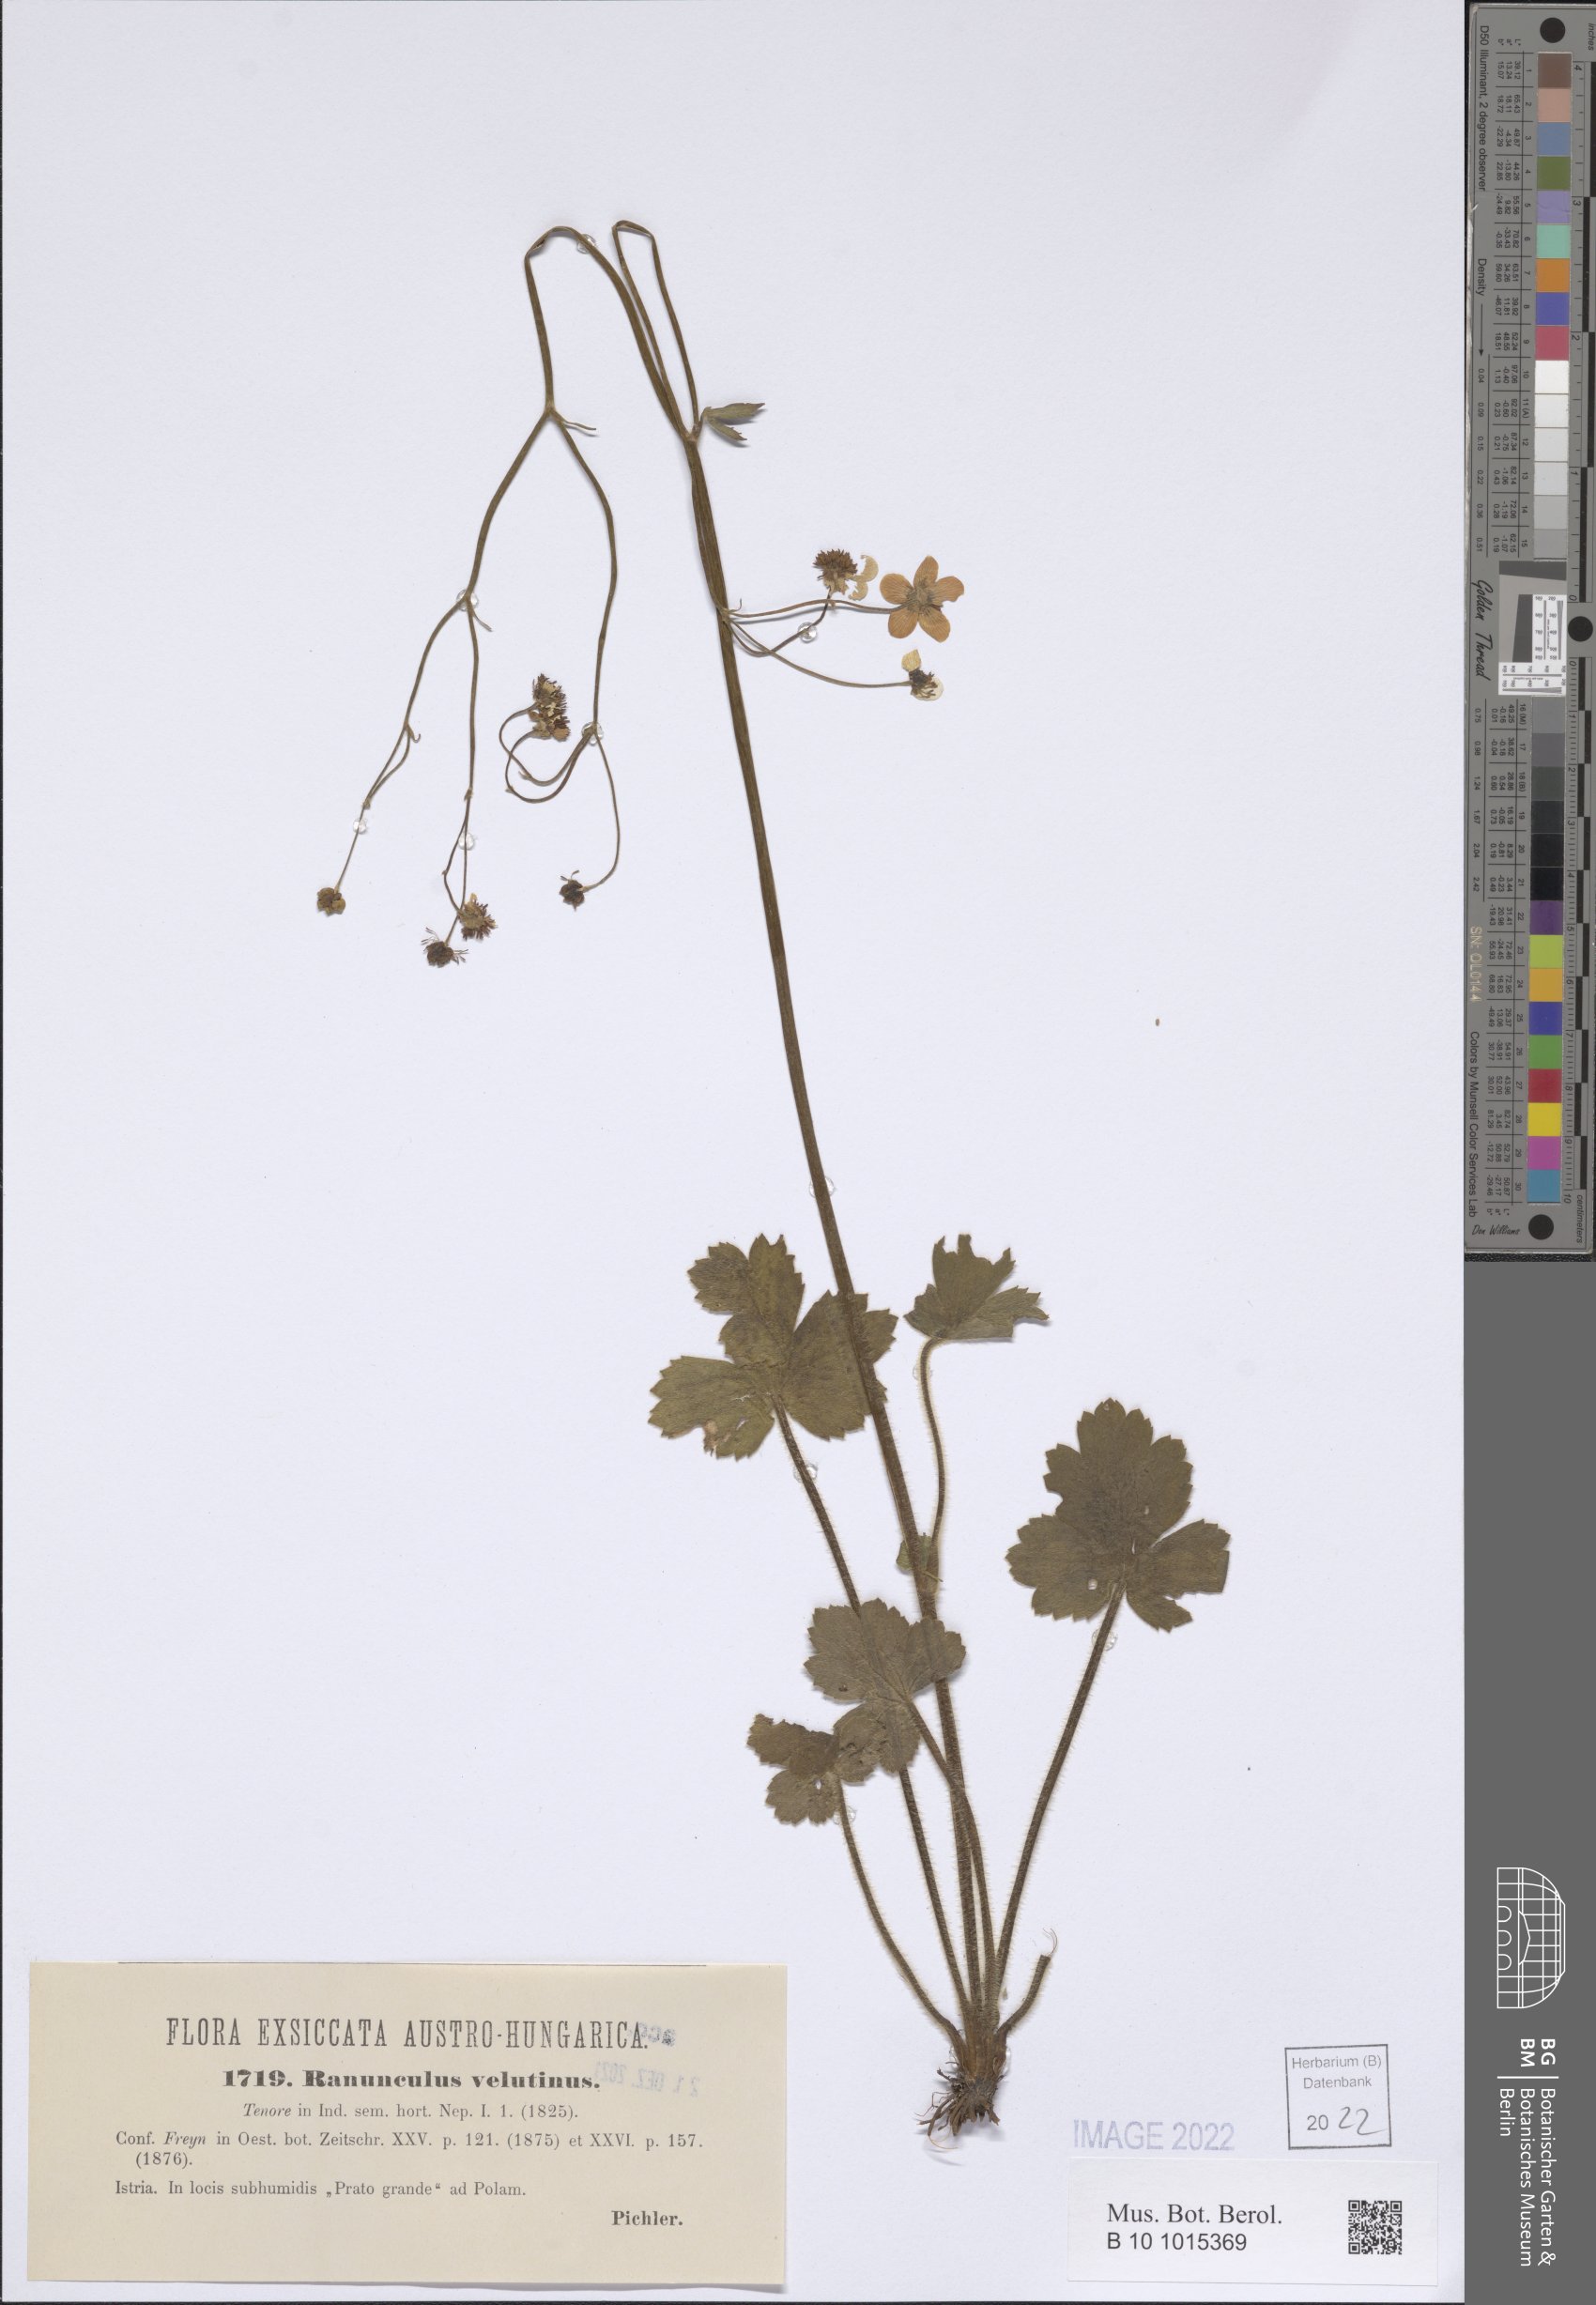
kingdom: Plantae
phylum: Tracheophyta
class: Magnoliopsida
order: Ranunculales
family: Ranunculaceae
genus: Ranunculus
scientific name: Ranunculus velutinus
